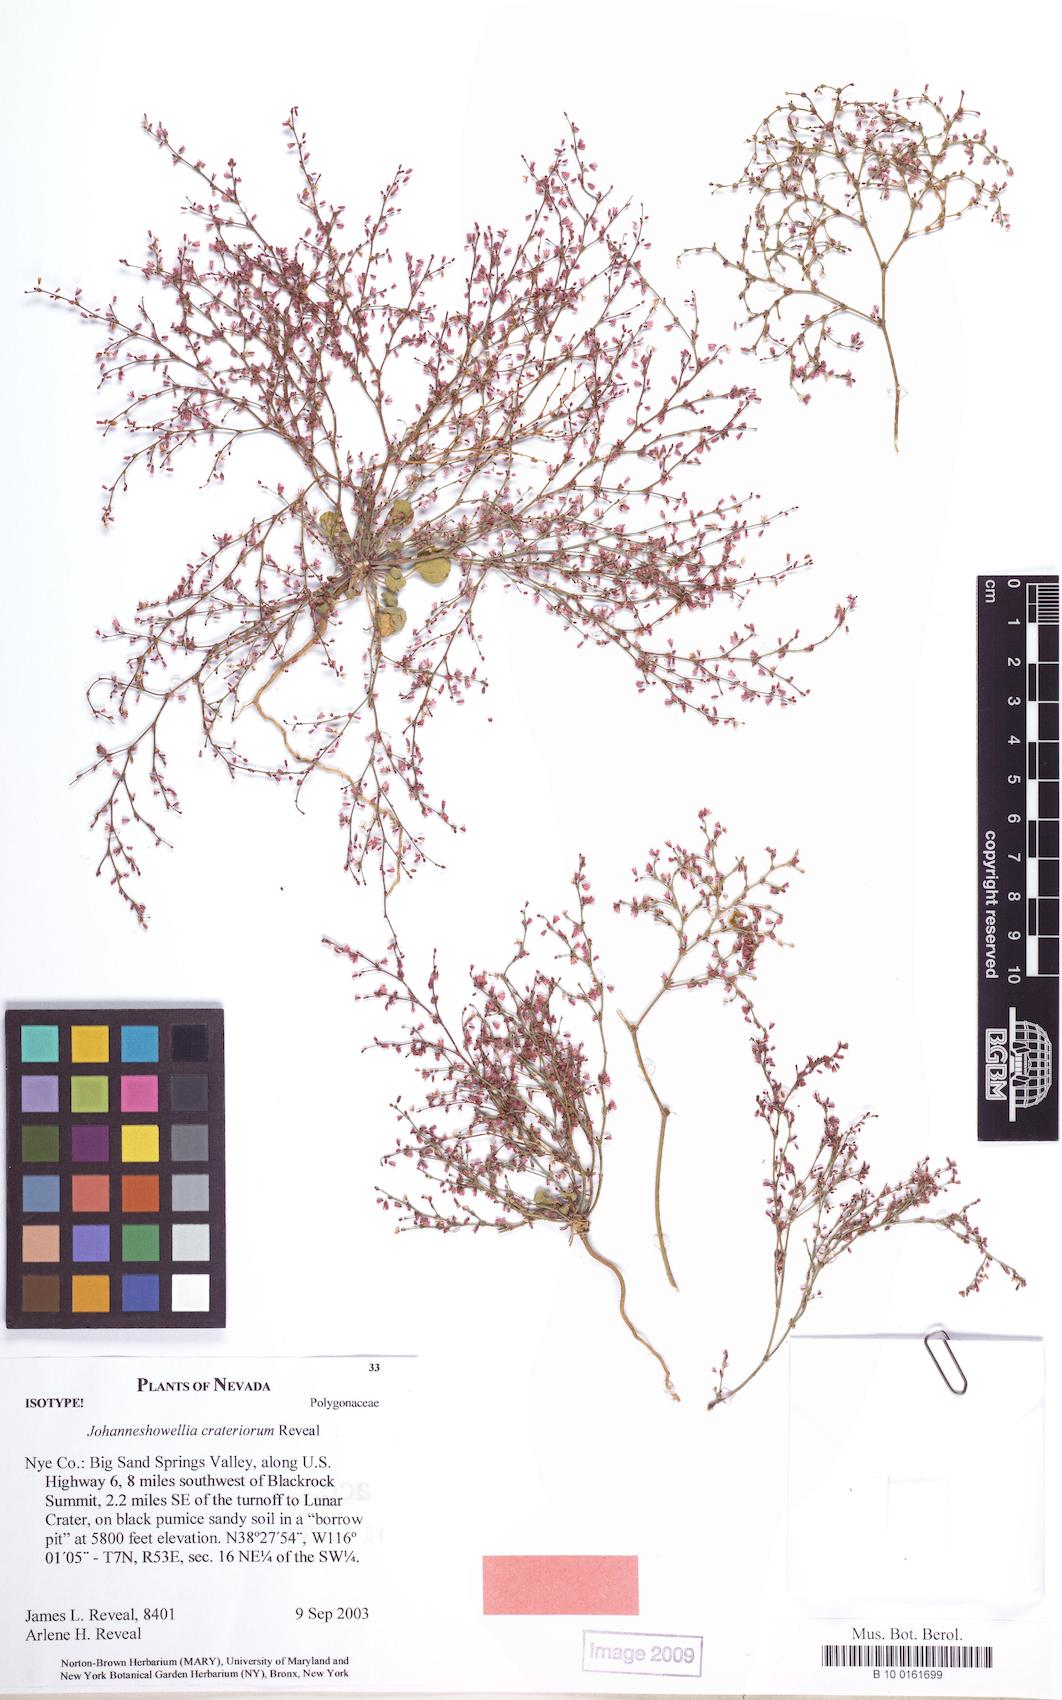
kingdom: Plantae
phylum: Tracheophyta
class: Magnoliopsida
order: Caryophyllales
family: Polygonaceae
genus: Johanneshowellia
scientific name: Johanneshowellia crateriorum
